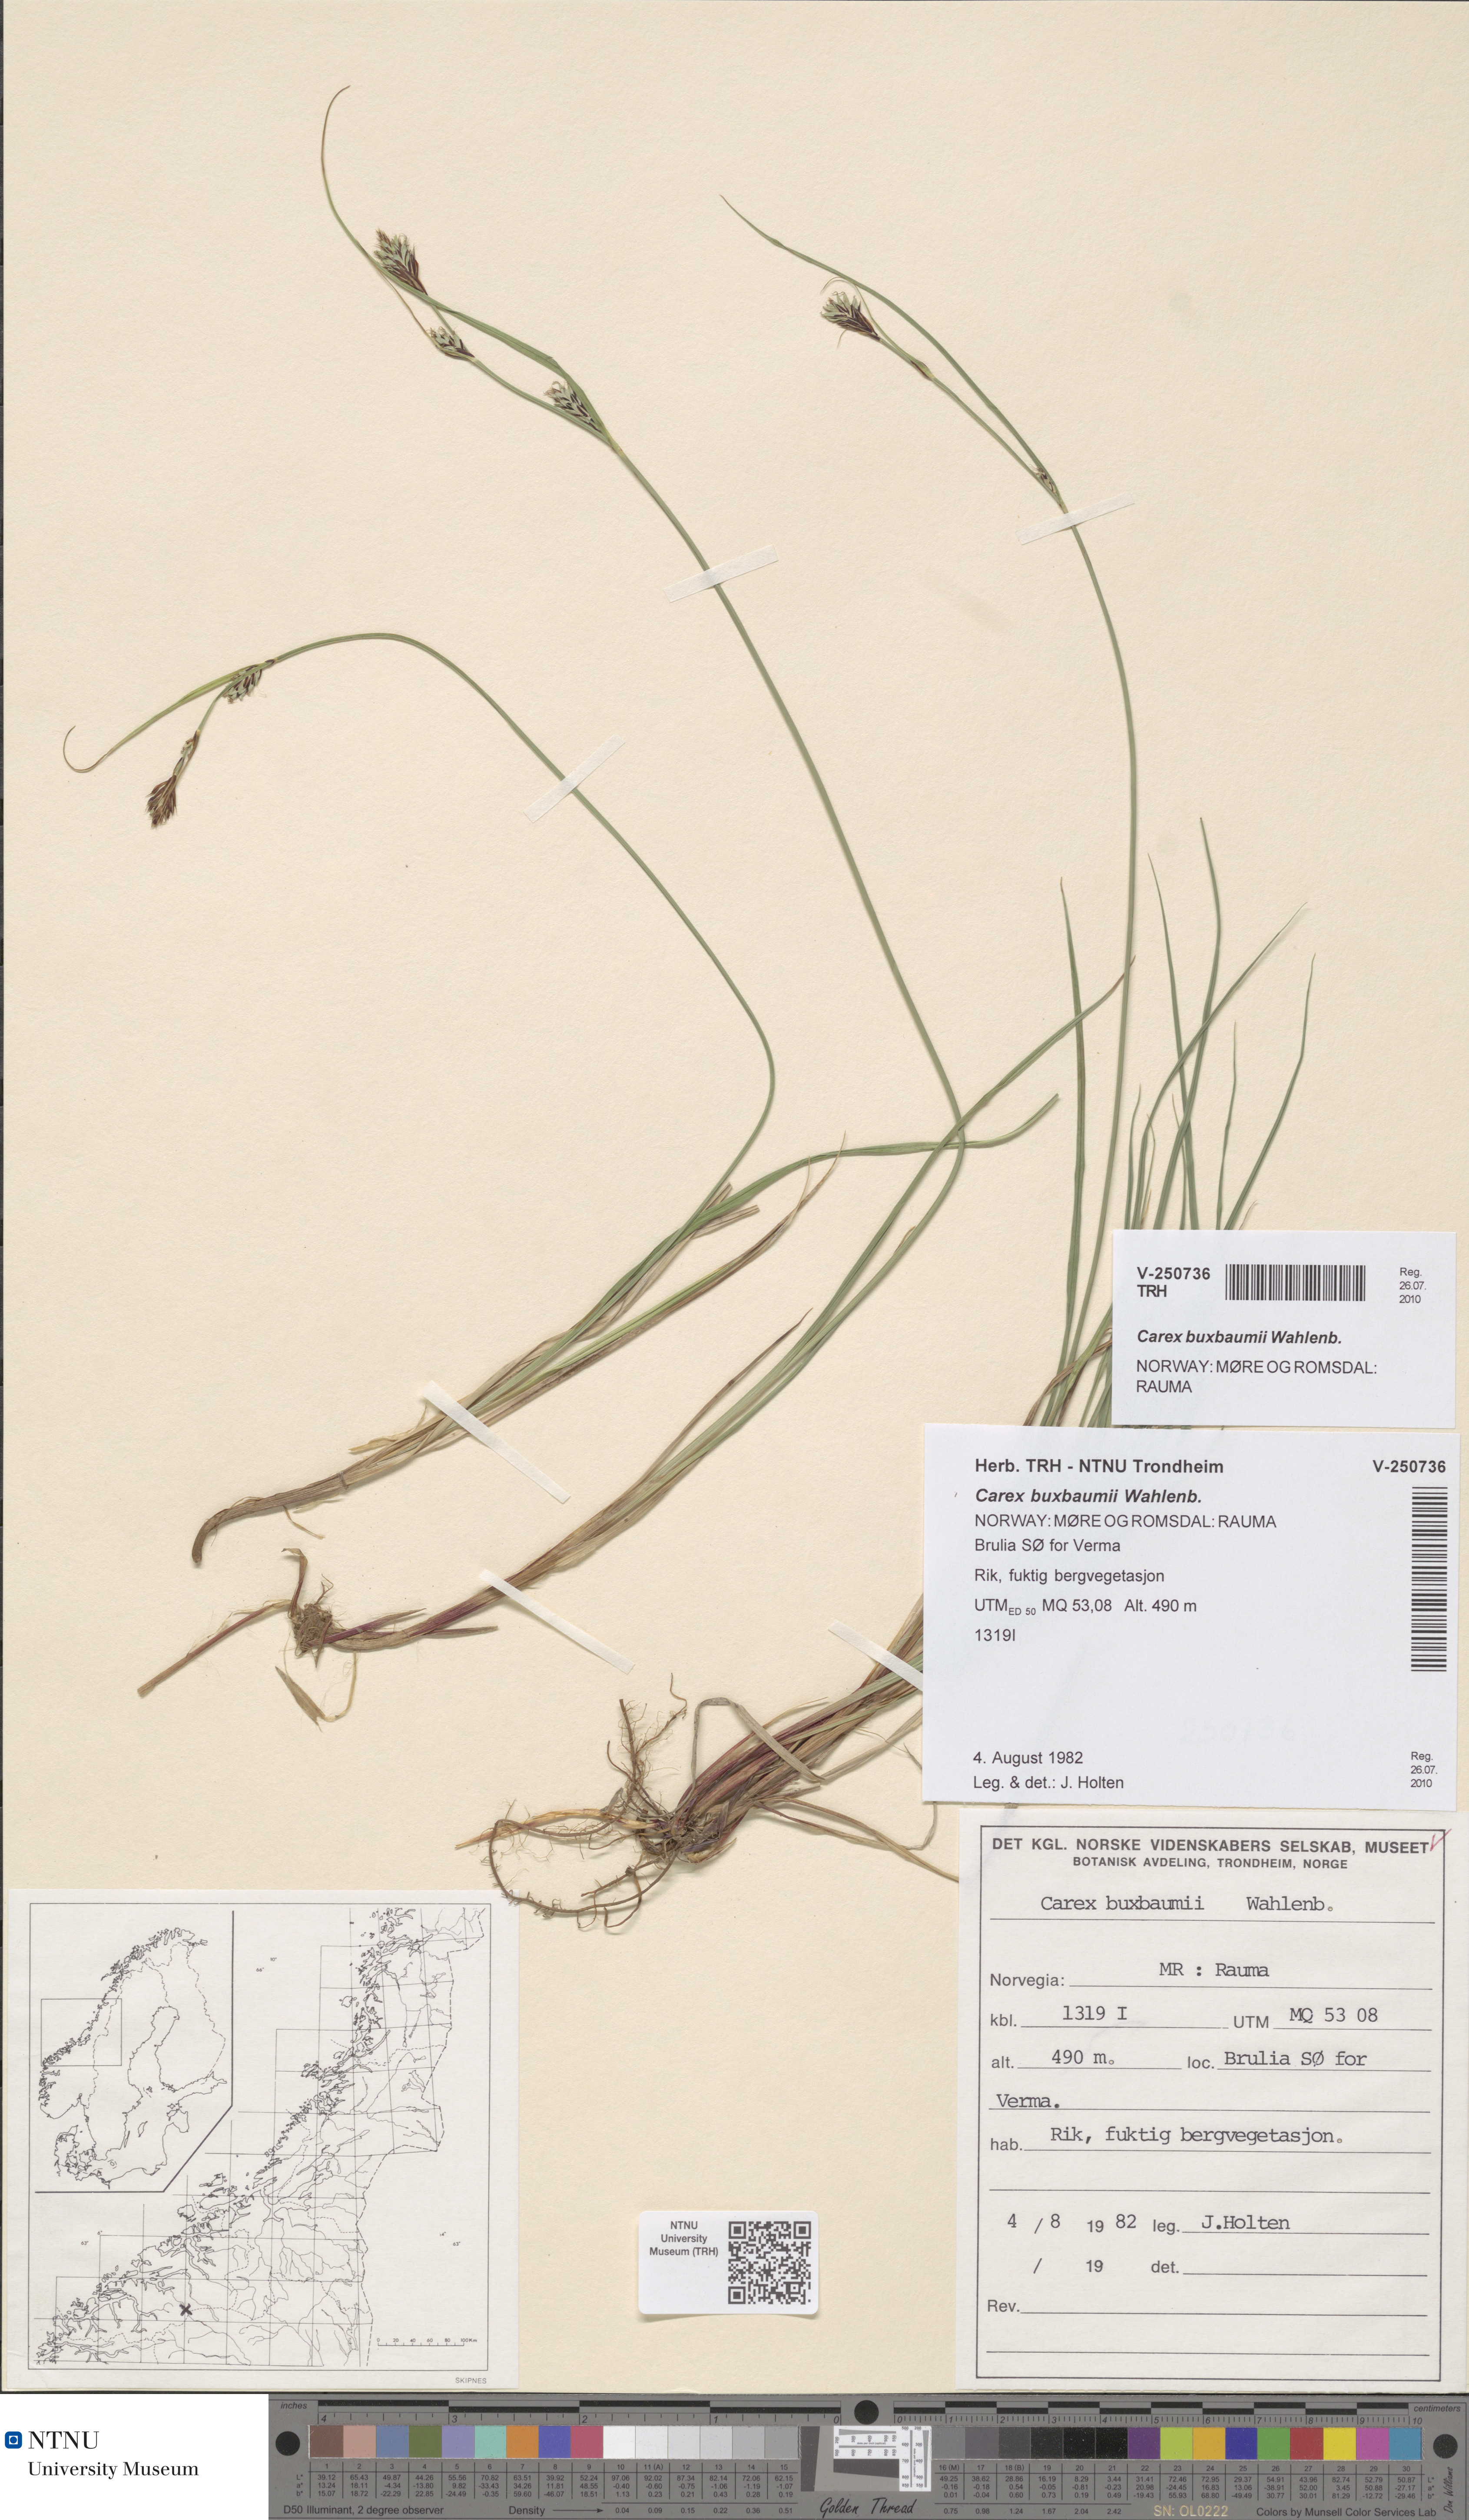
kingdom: Plantae
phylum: Tracheophyta
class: Liliopsida
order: Poales
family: Cyperaceae
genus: Carex
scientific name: Carex buxbaumii
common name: Club sedge
